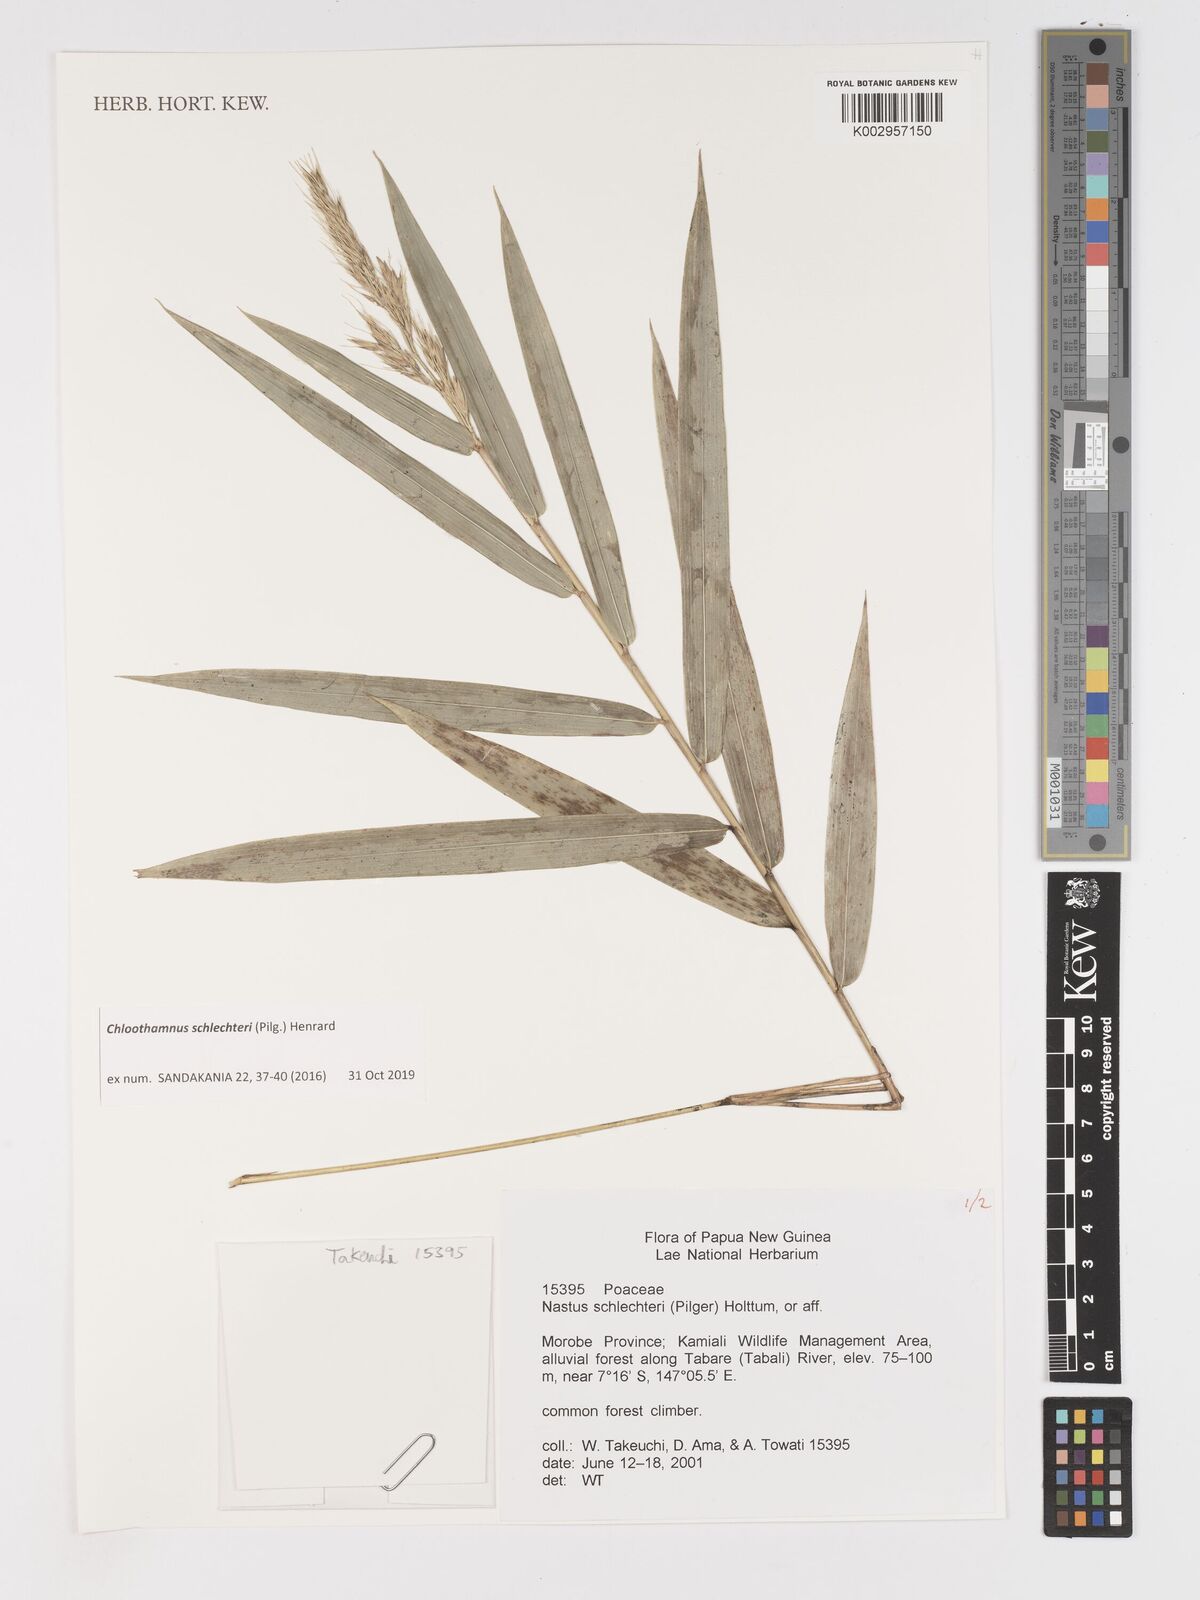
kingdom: Plantae
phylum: Tracheophyta
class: Liliopsida
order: Poales
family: Poaceae
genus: Chloothamnus
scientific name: Chloothamnus schlechteri
